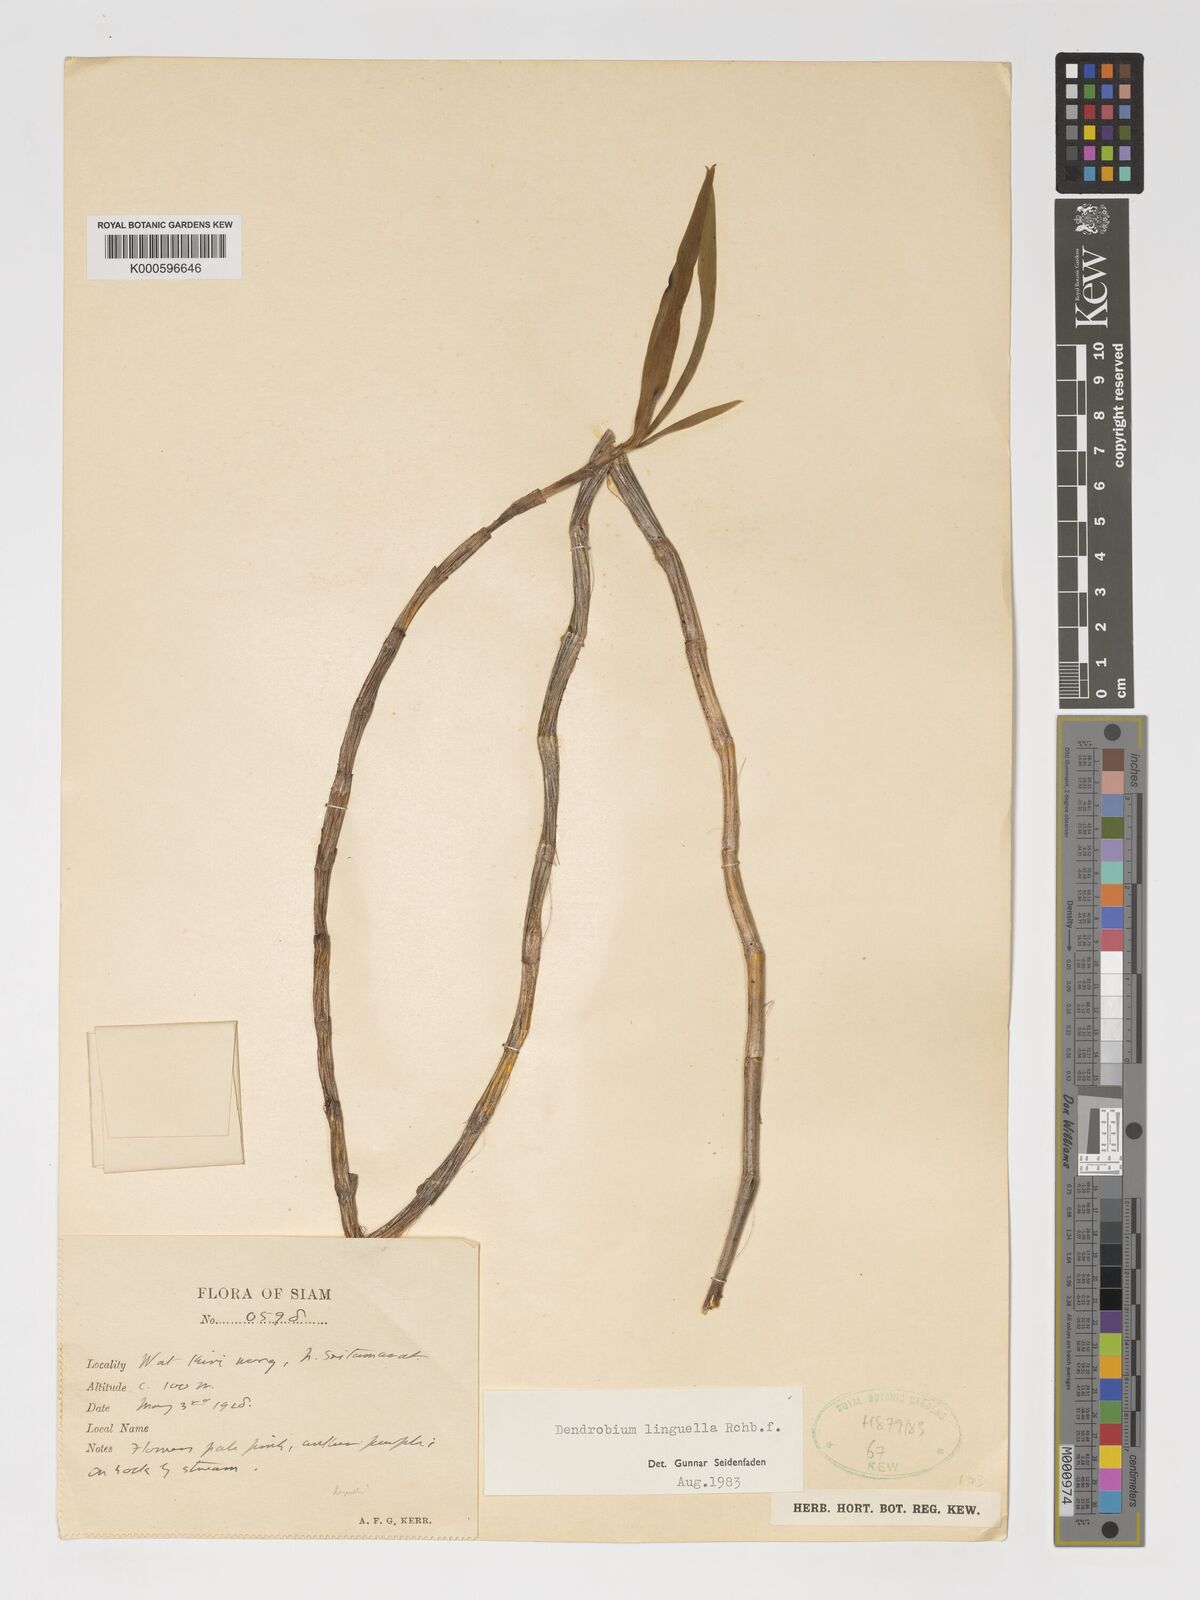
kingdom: Plantae
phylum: Tracheophyta
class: Liliopsida
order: Asparagales
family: Orchidaceae
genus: Dendrobium
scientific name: Dendrobium linguella
